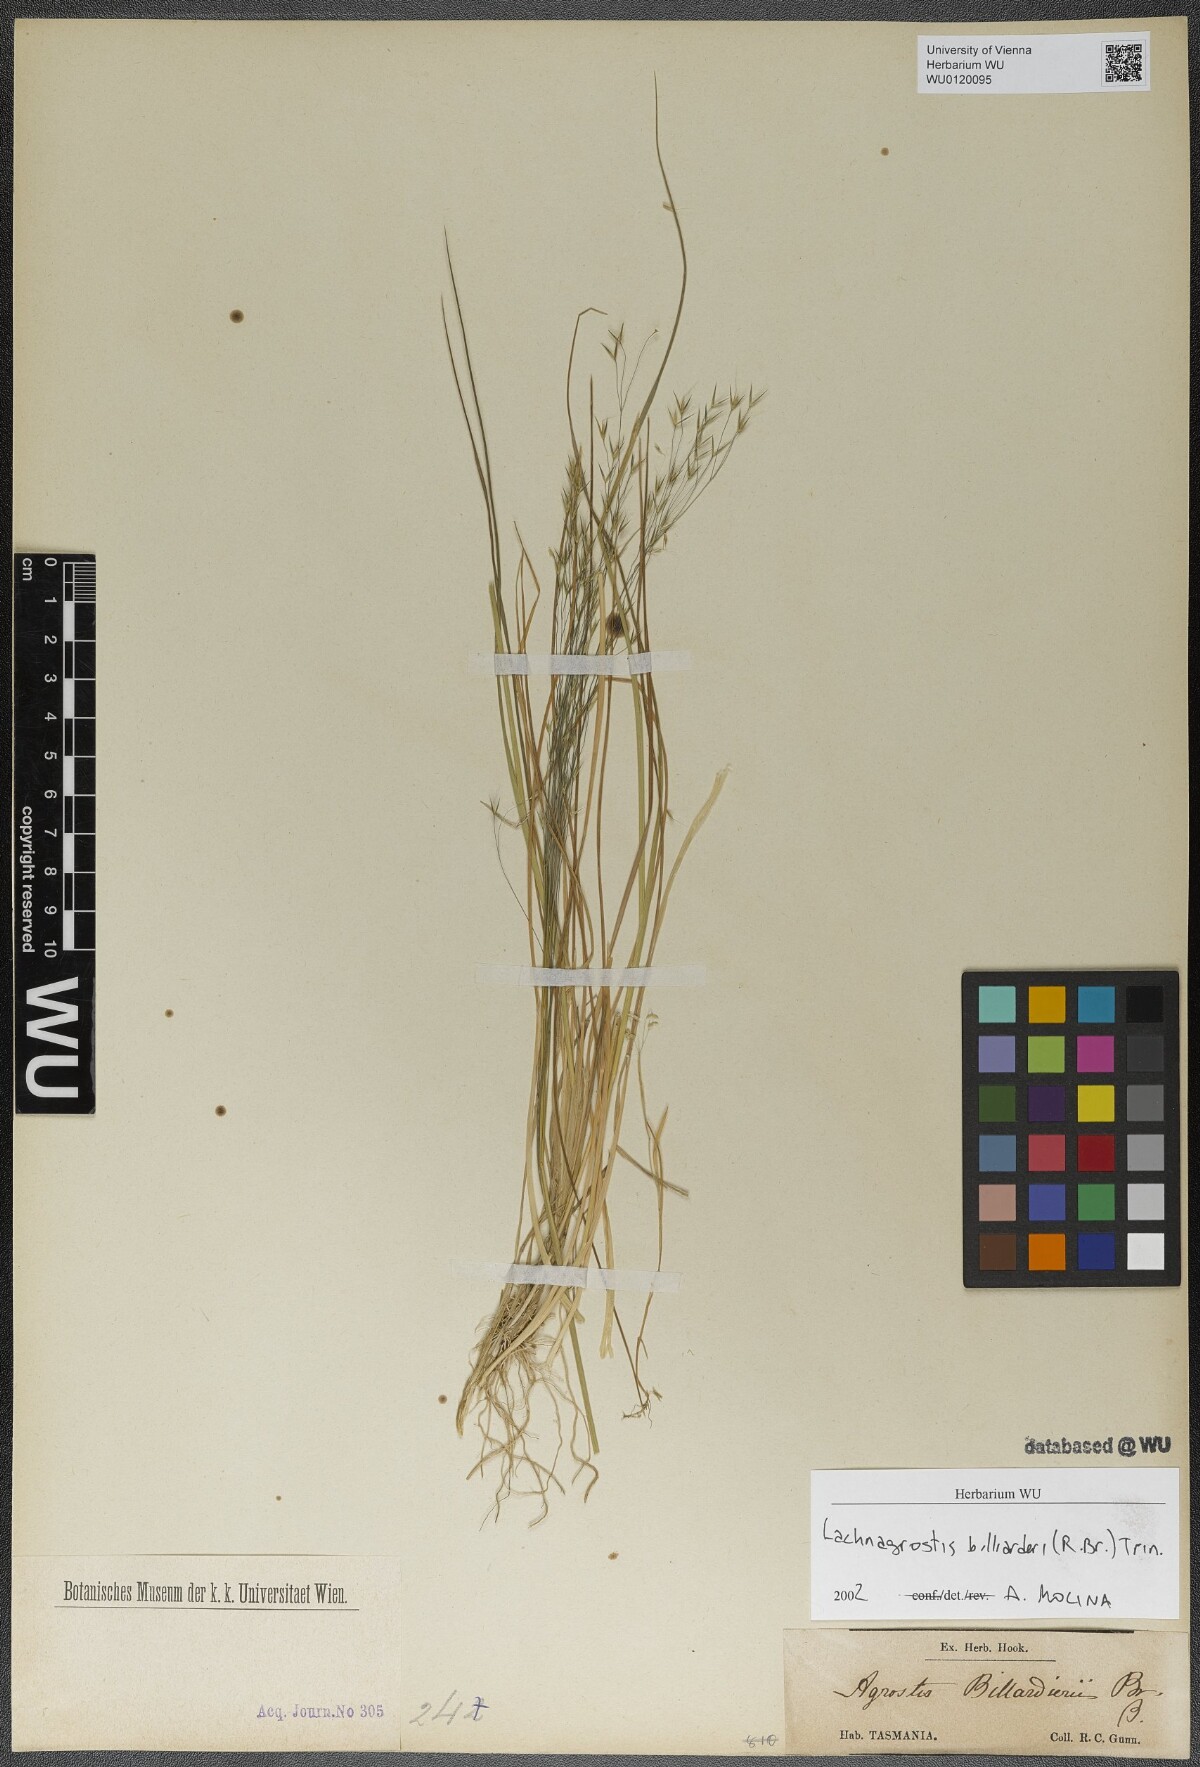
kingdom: Plantae
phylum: Tracheophyta
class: Liliopsida
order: Poales
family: Poaceae
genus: Lachnagrostis
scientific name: Lachnagrostis semibarbata
